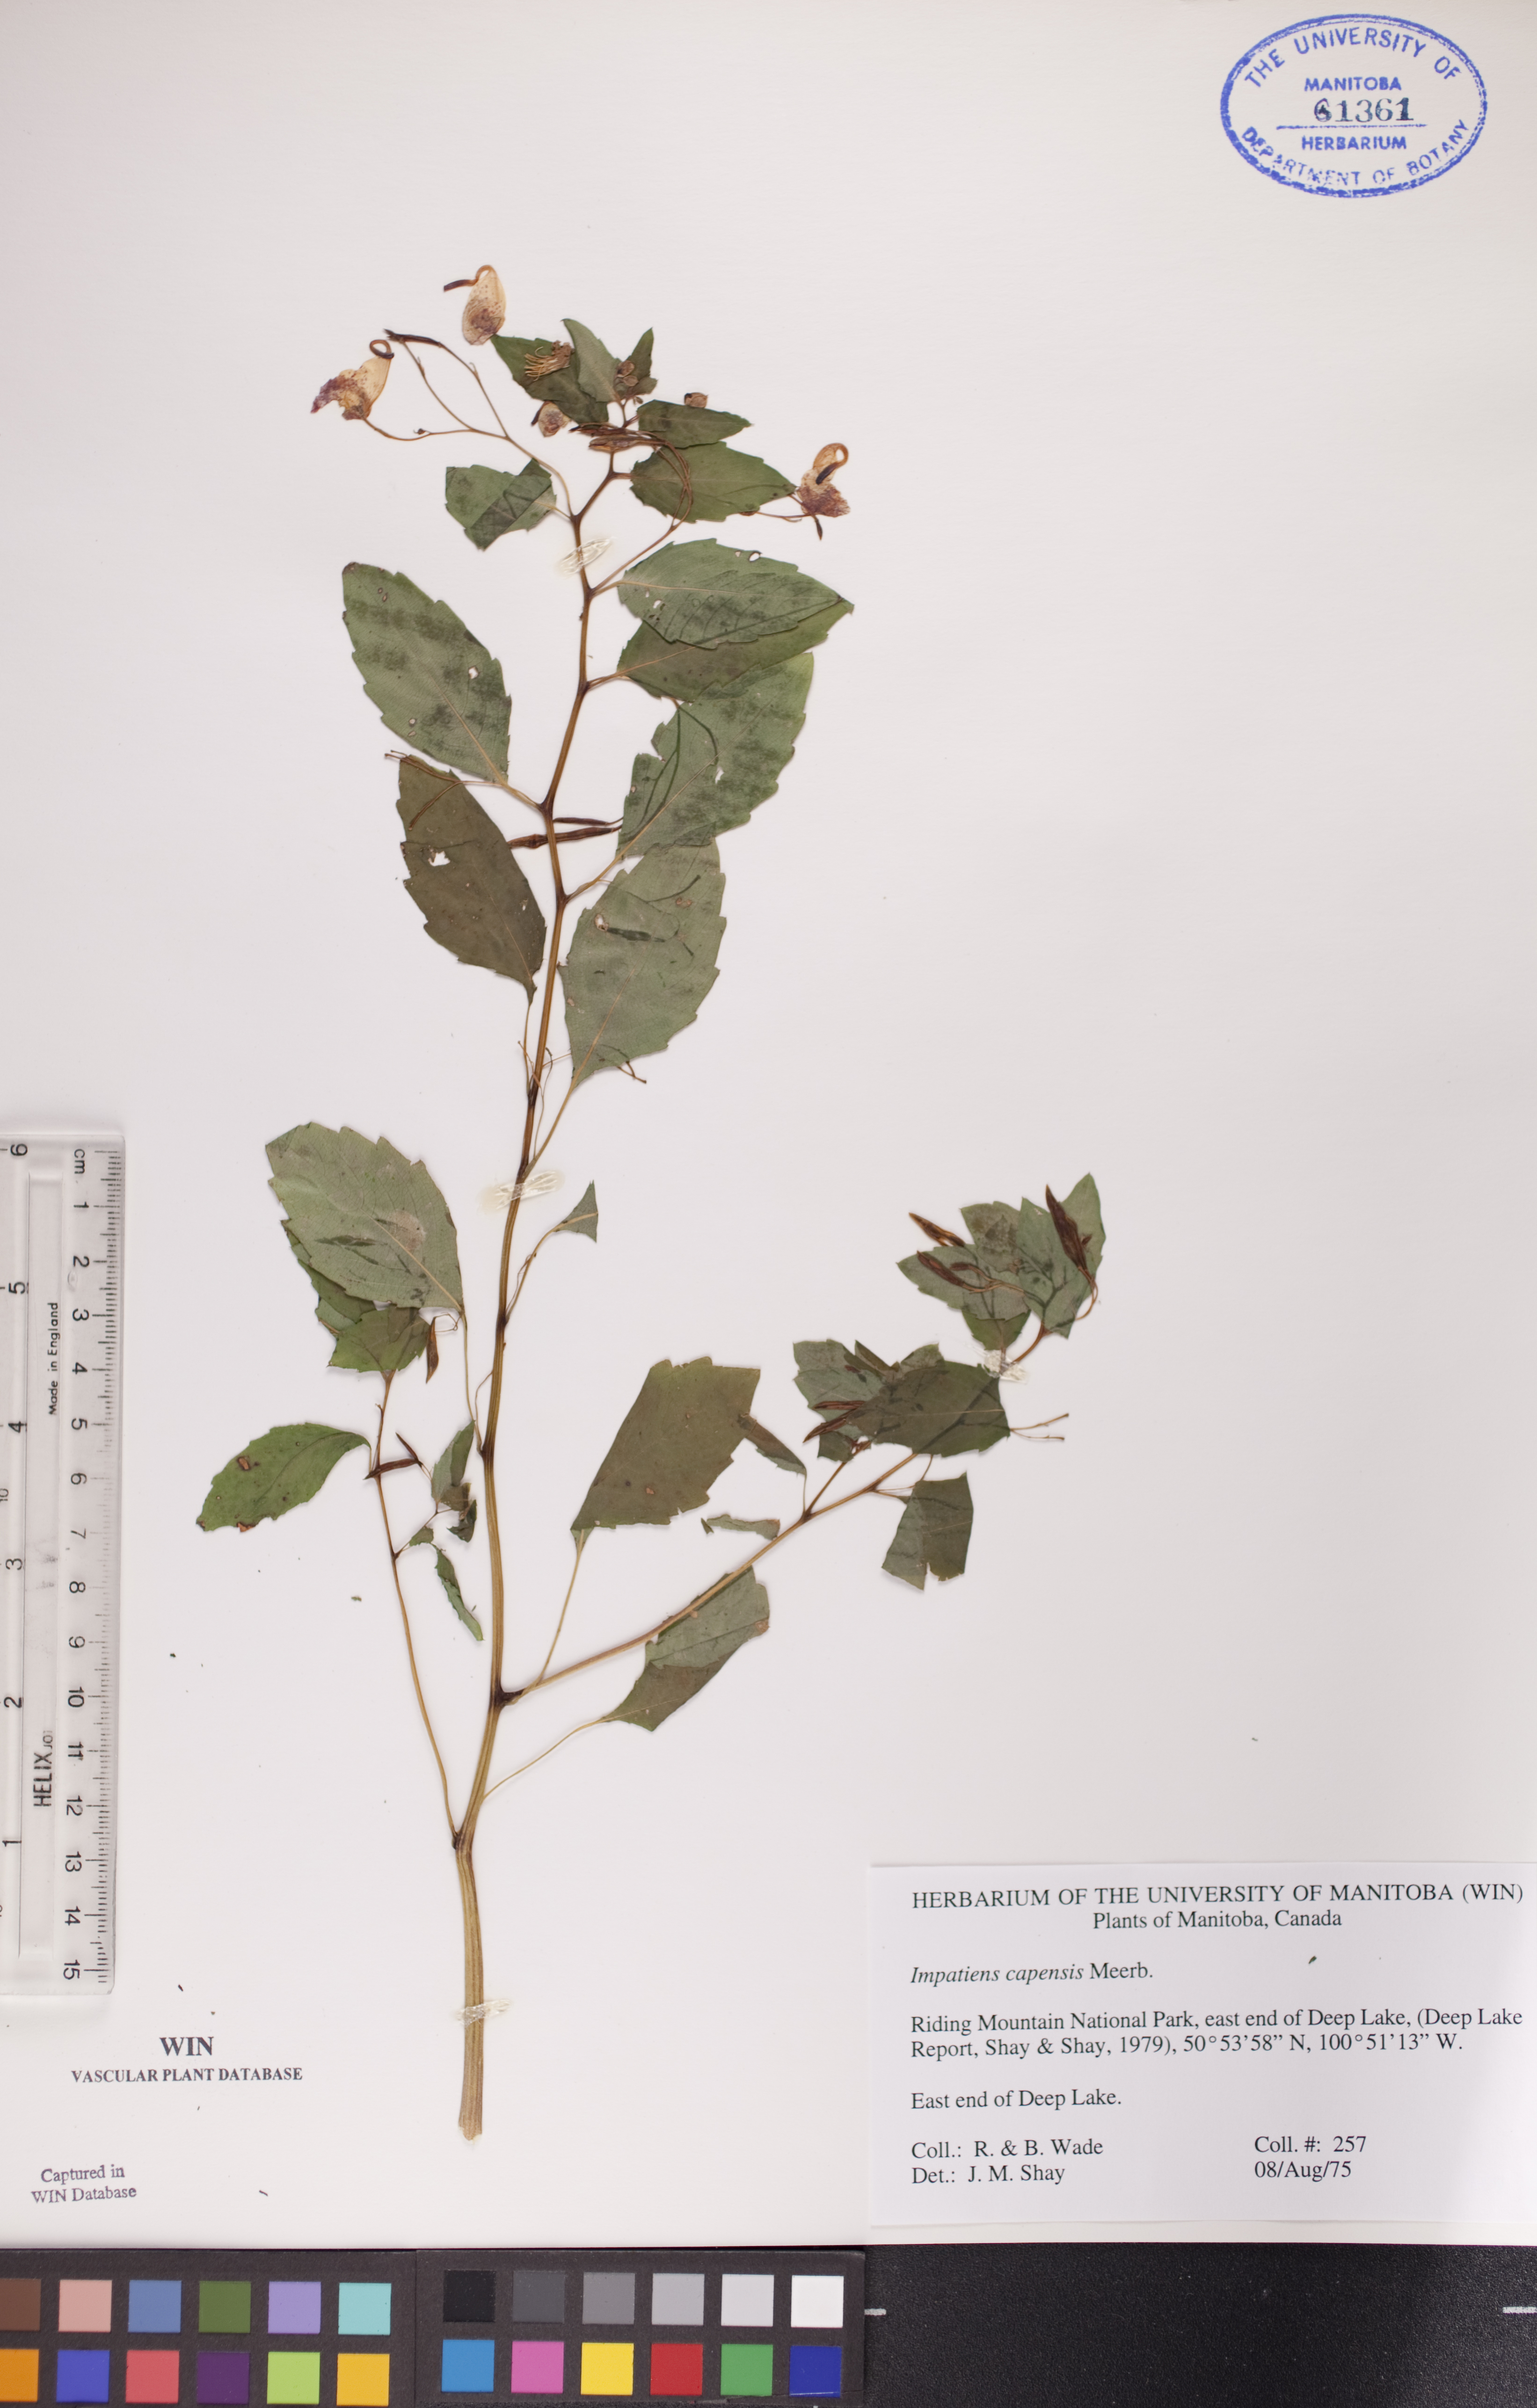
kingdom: Plantae
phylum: Tracheophyta
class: Magnoliopsida
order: Ericales
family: Balsaminaceae
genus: Impatiens
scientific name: Impatiens capensis
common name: Orange balsam
